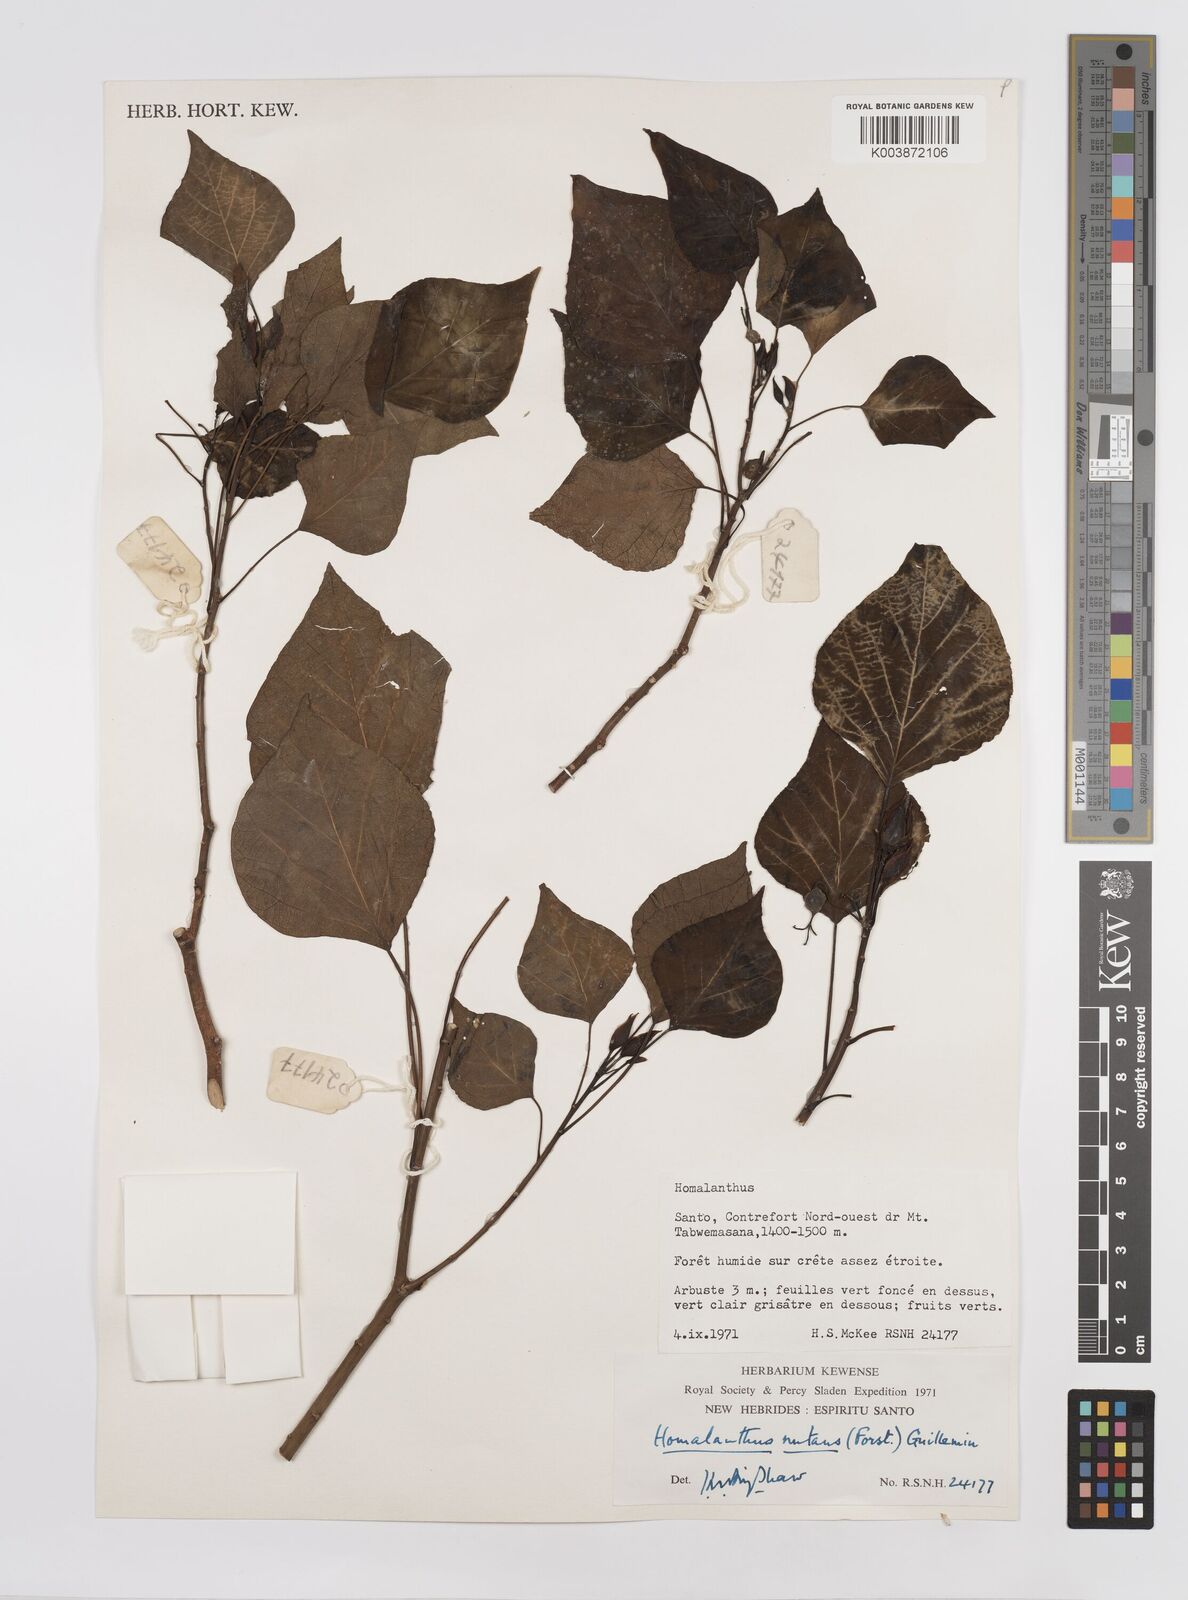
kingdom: Plantae
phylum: Tracheophyta
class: Magnoliopsida
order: Malpighiales
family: Euphorbiaceae
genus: Homalanthus
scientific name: Homalanthus nutans
